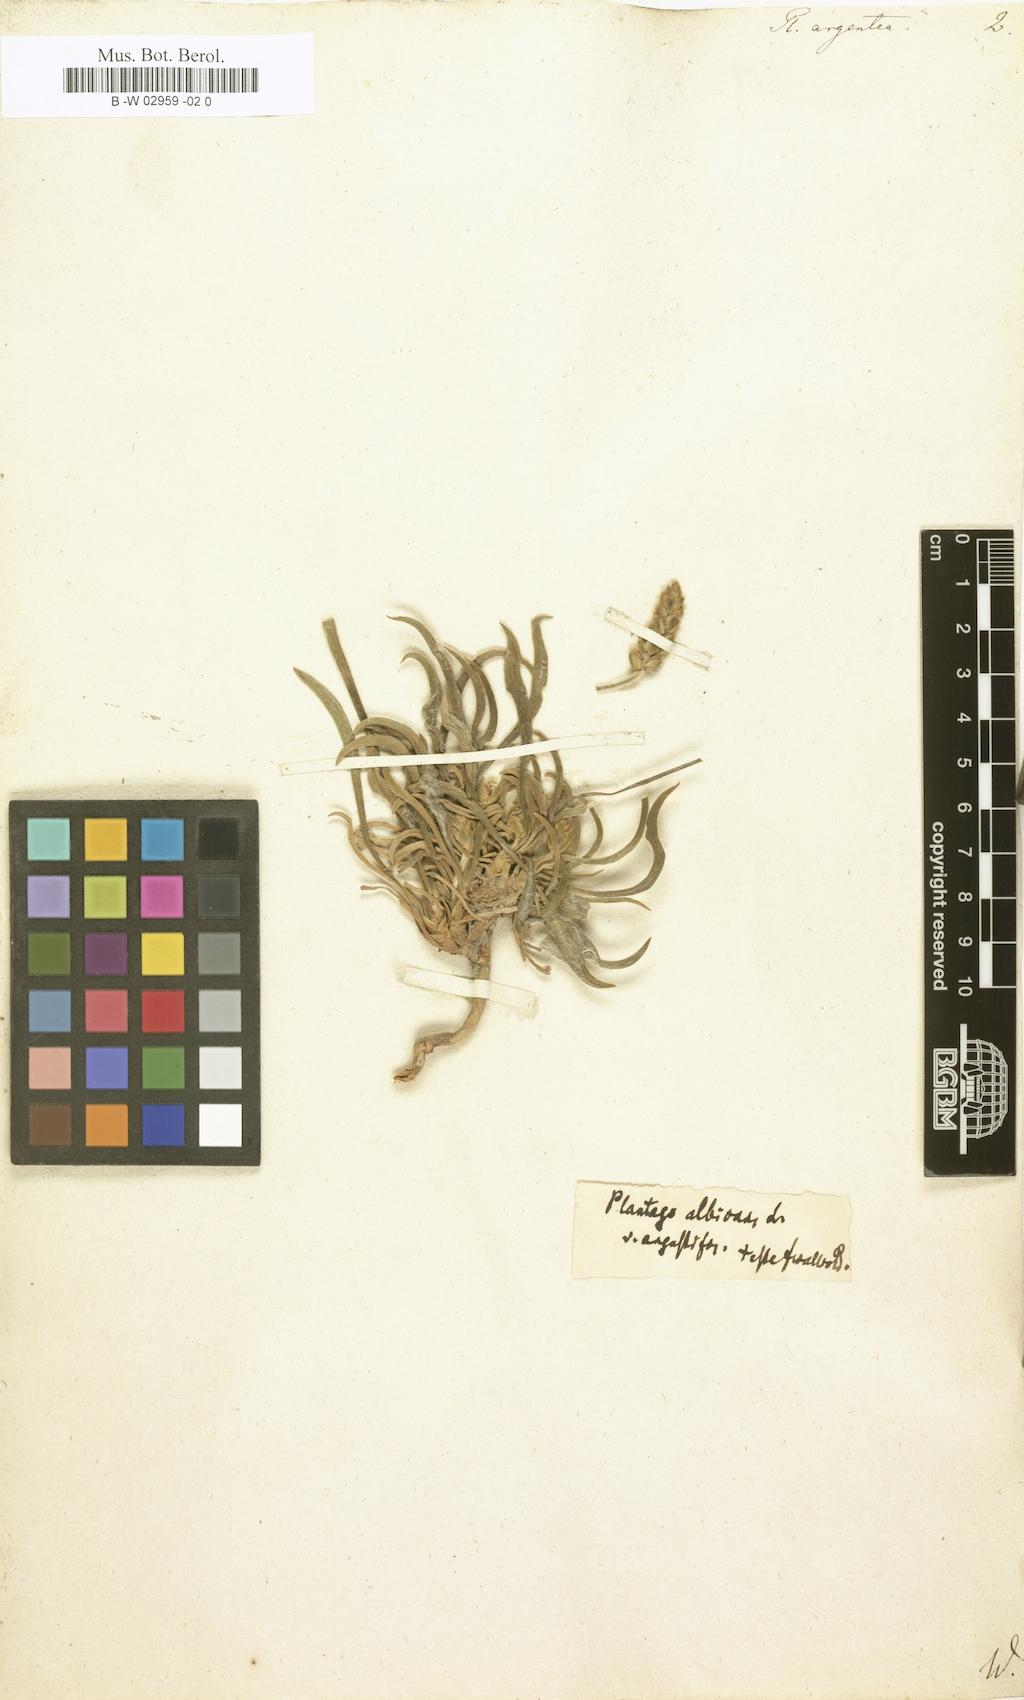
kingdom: Plantae
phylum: Tracheophyta
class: Magnoliopsida
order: Lamiales
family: Plantaginaceae
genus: Plantago
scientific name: Plantago argentea
